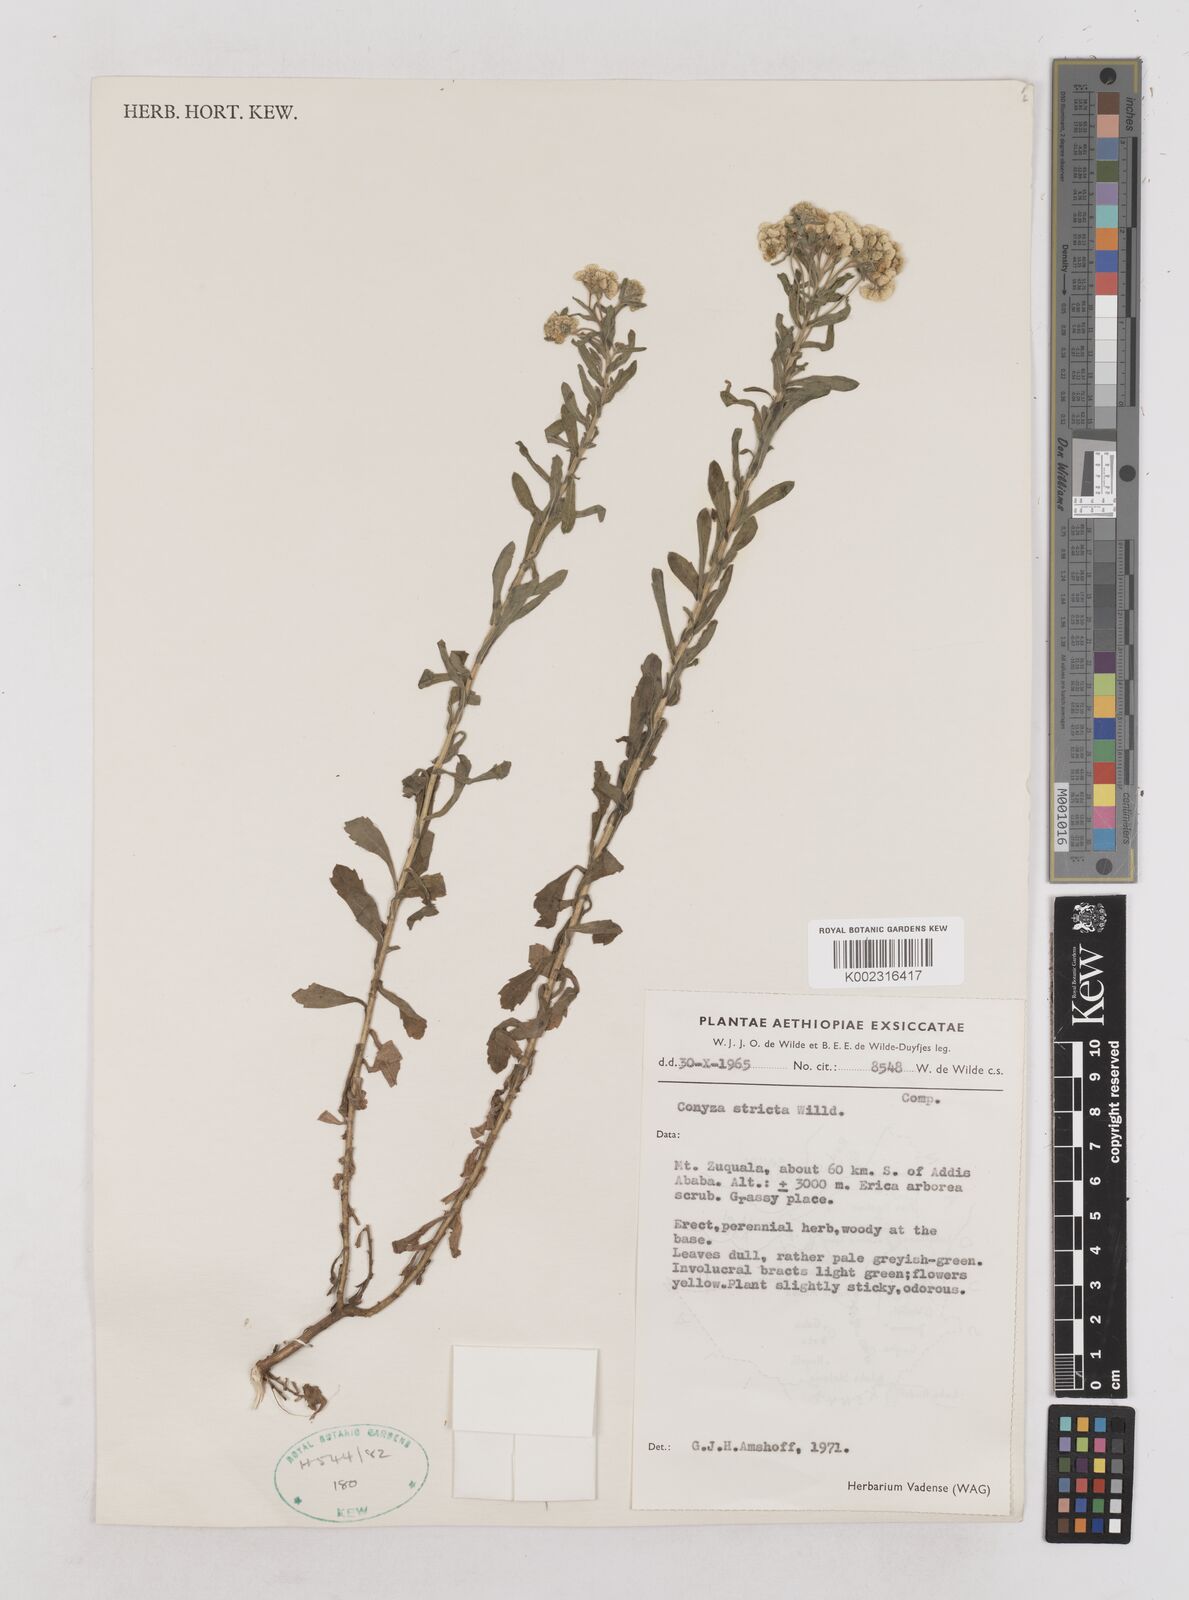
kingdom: Plantae
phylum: Tracheophyta
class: Magnoliopsida
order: Asterales
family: Asteraceae
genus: Nidorella
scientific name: Nidorella triloba
